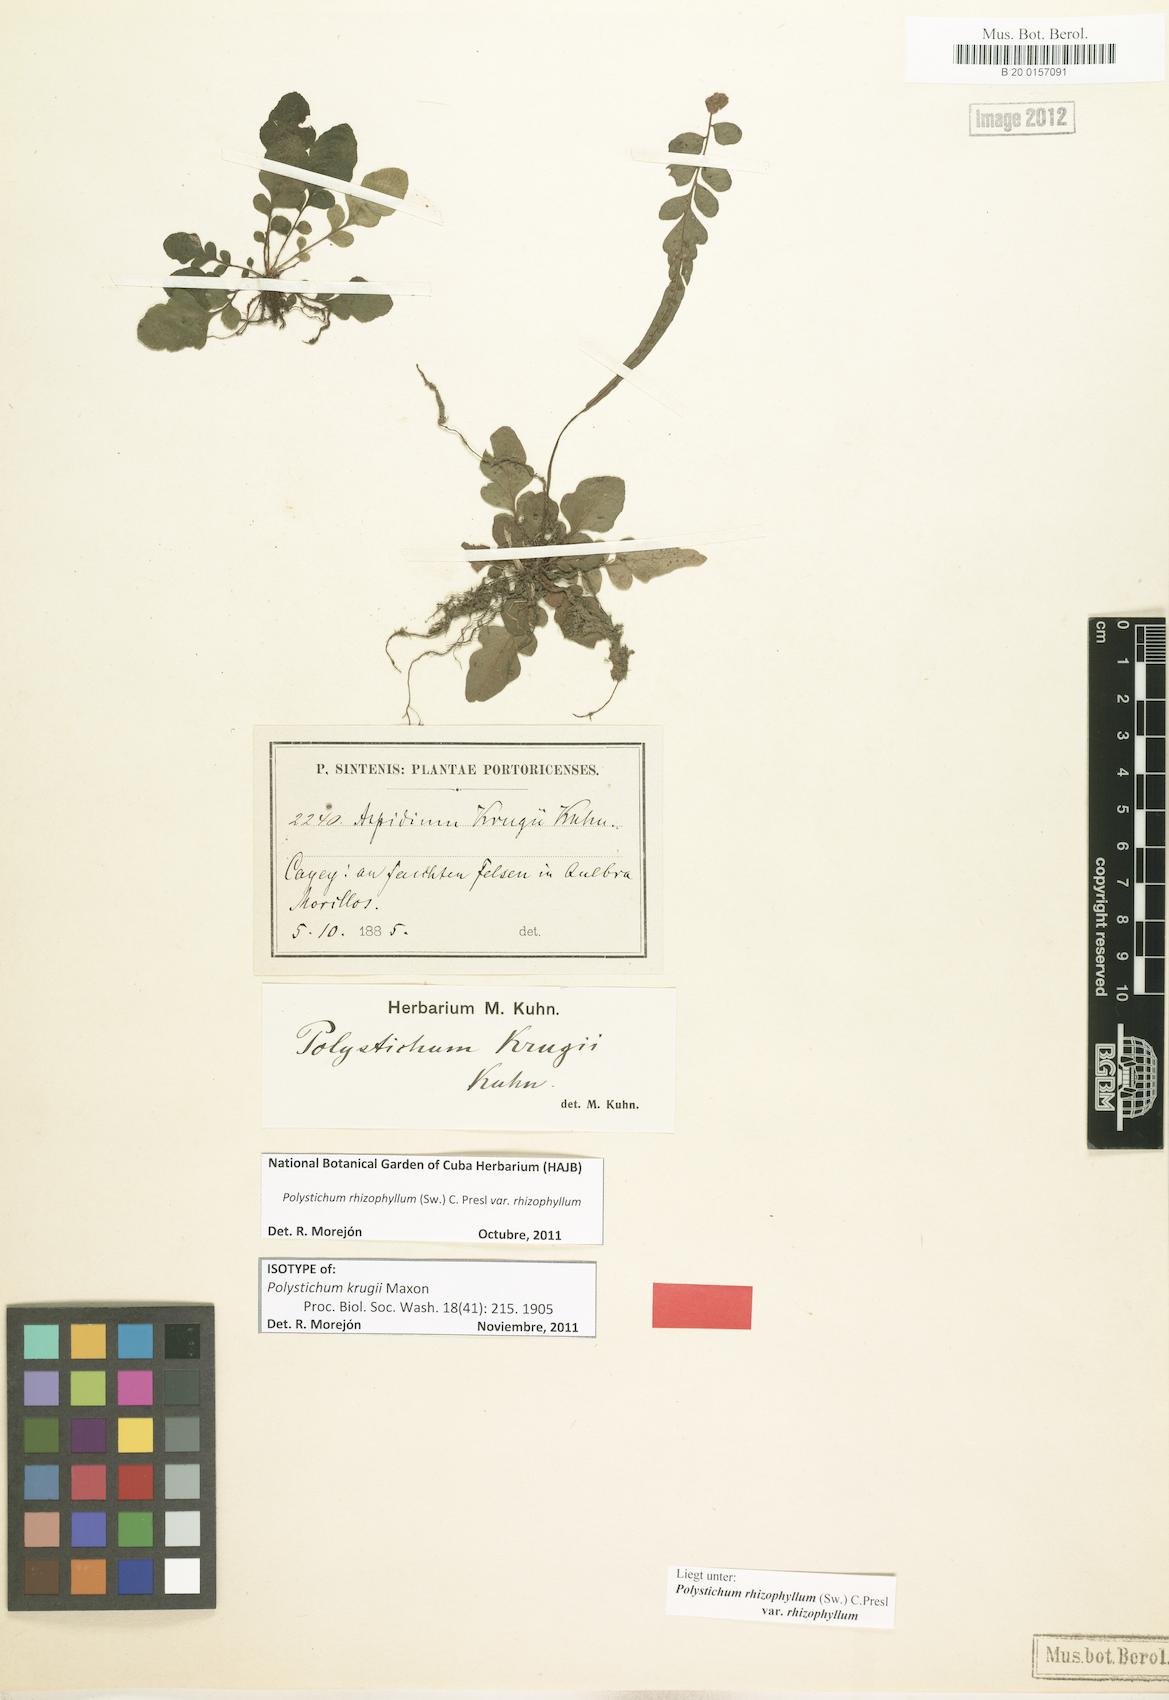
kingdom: Plantae
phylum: Tracheophyta
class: Polypodiopsida
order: Polypodiales
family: Dryopteridaceae
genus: Polystichum
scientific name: Polystichum rhizophyllum
